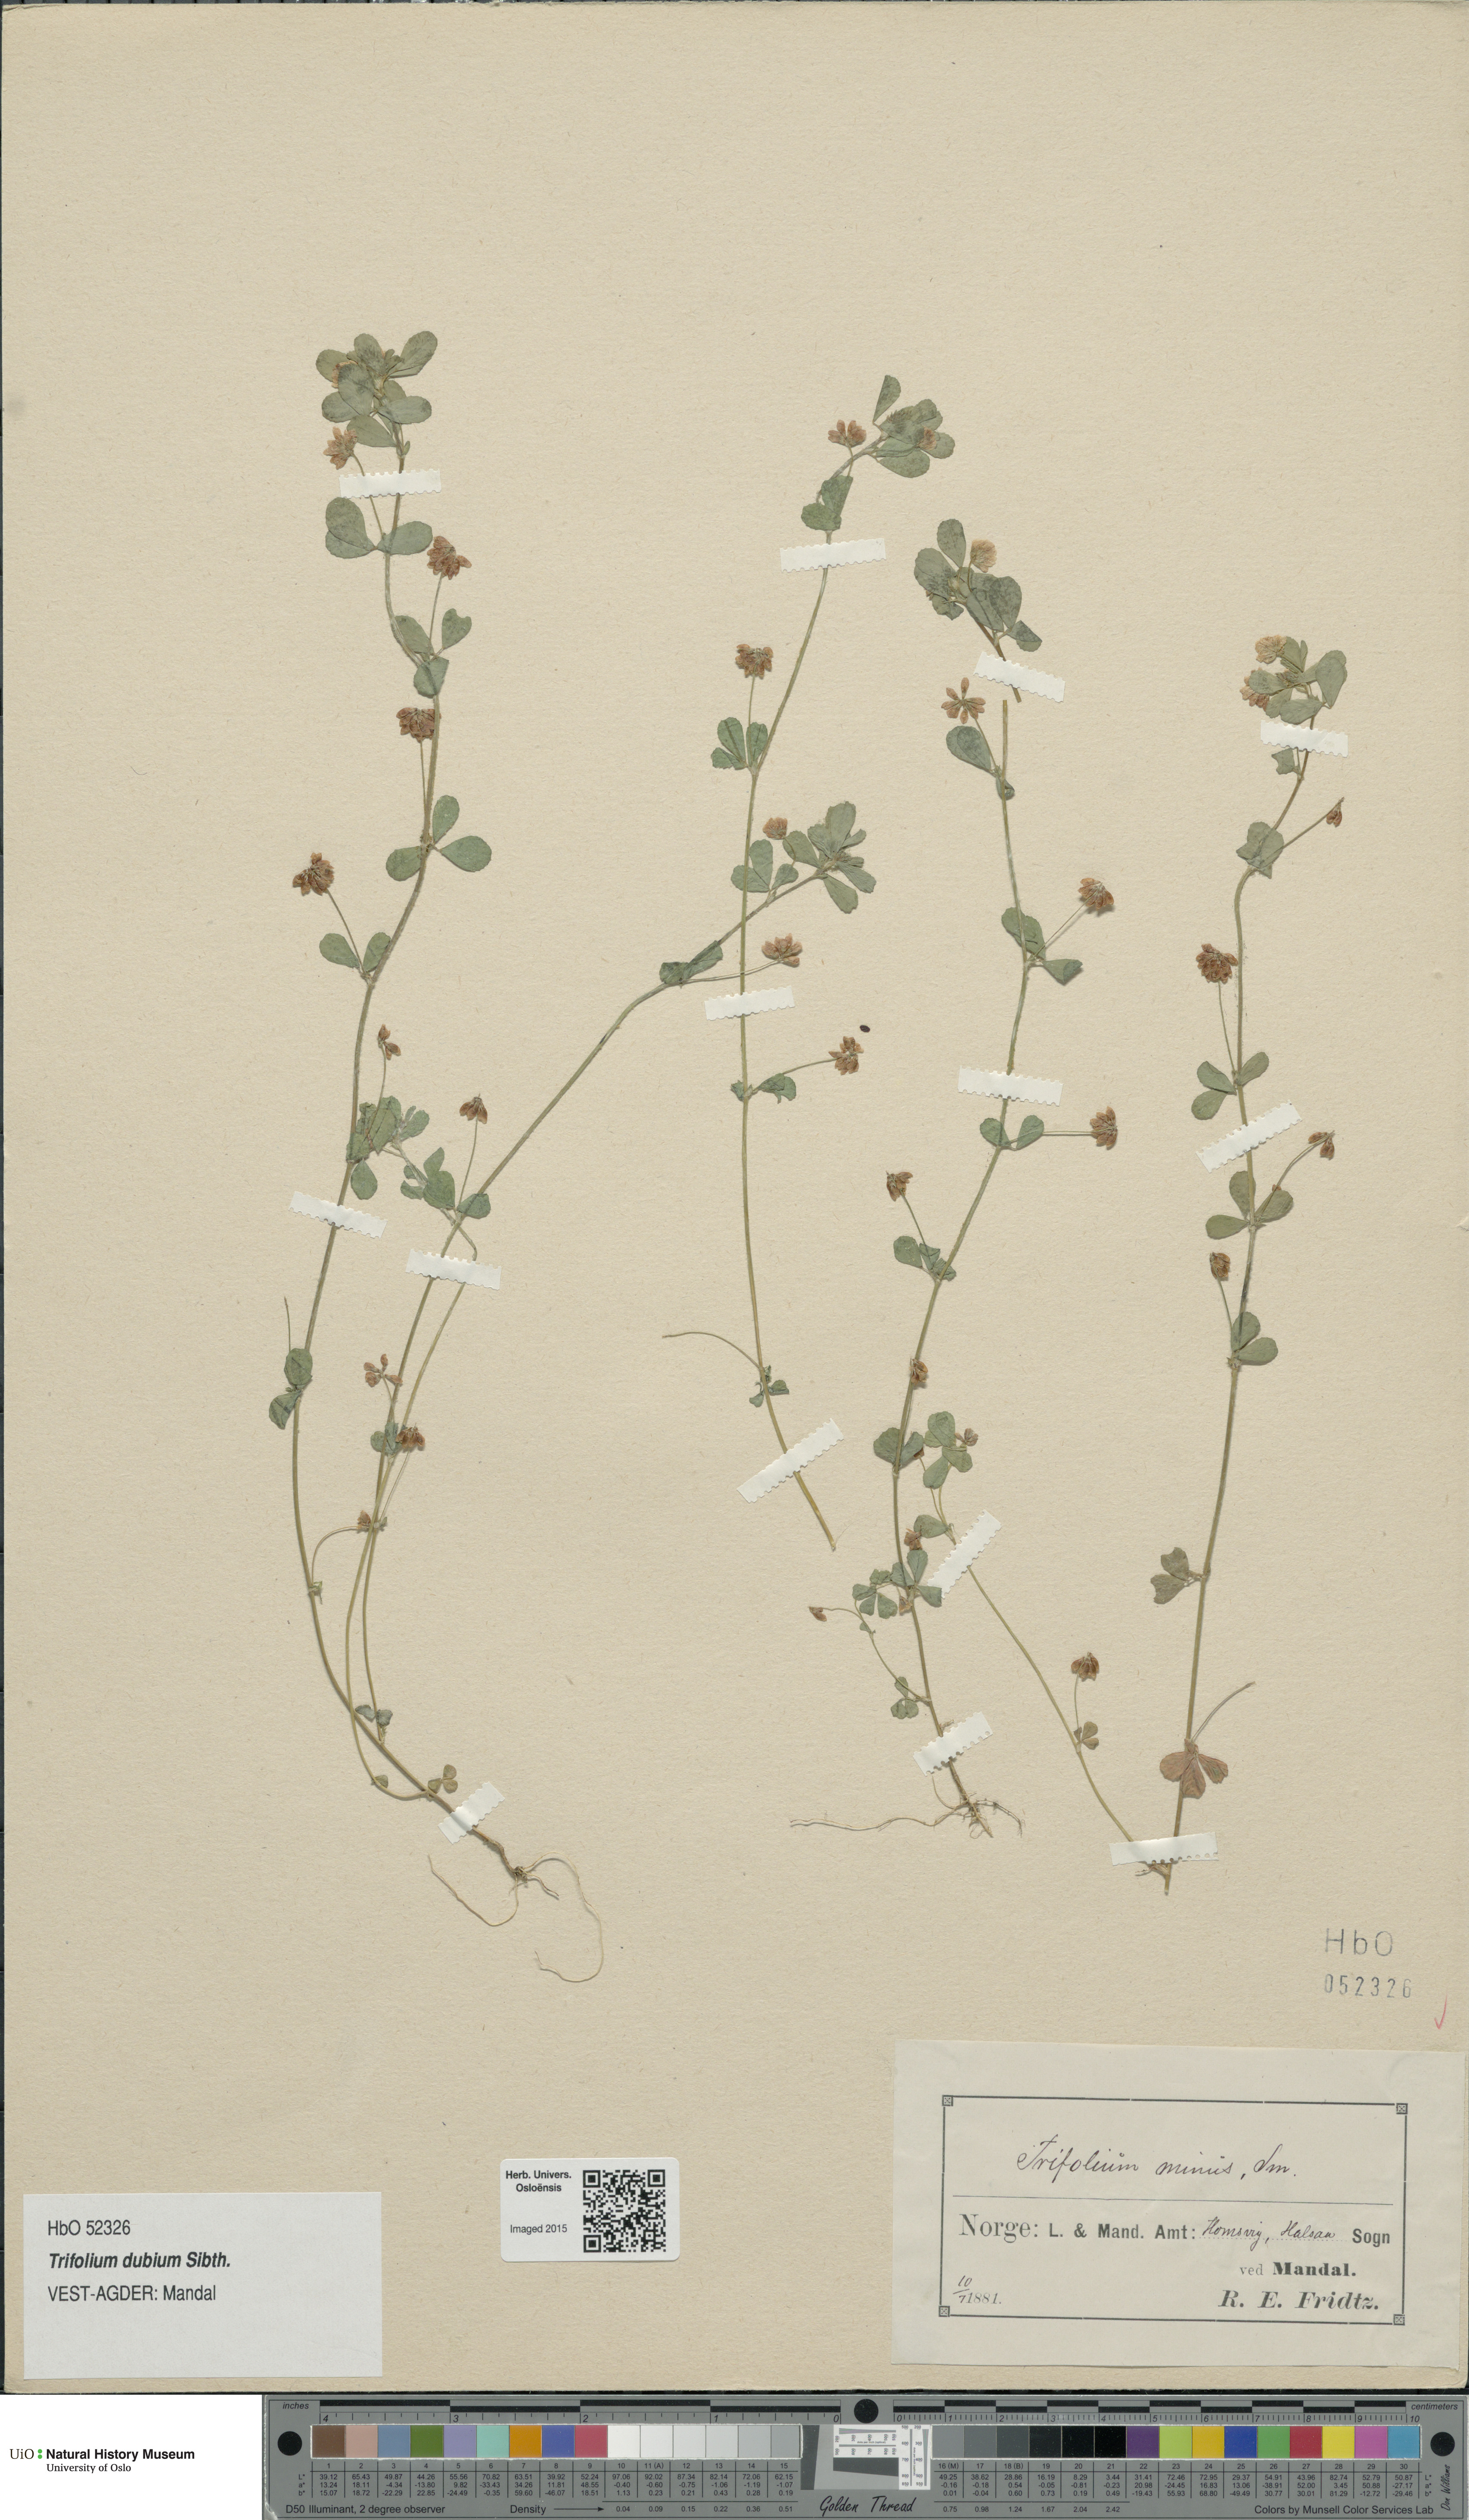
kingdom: Plantae
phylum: Tracheophyta
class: Magnoliopsida
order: Fabales
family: Fabaceae
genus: Trifolium
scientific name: Trifolium dubium
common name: Suckling clover
